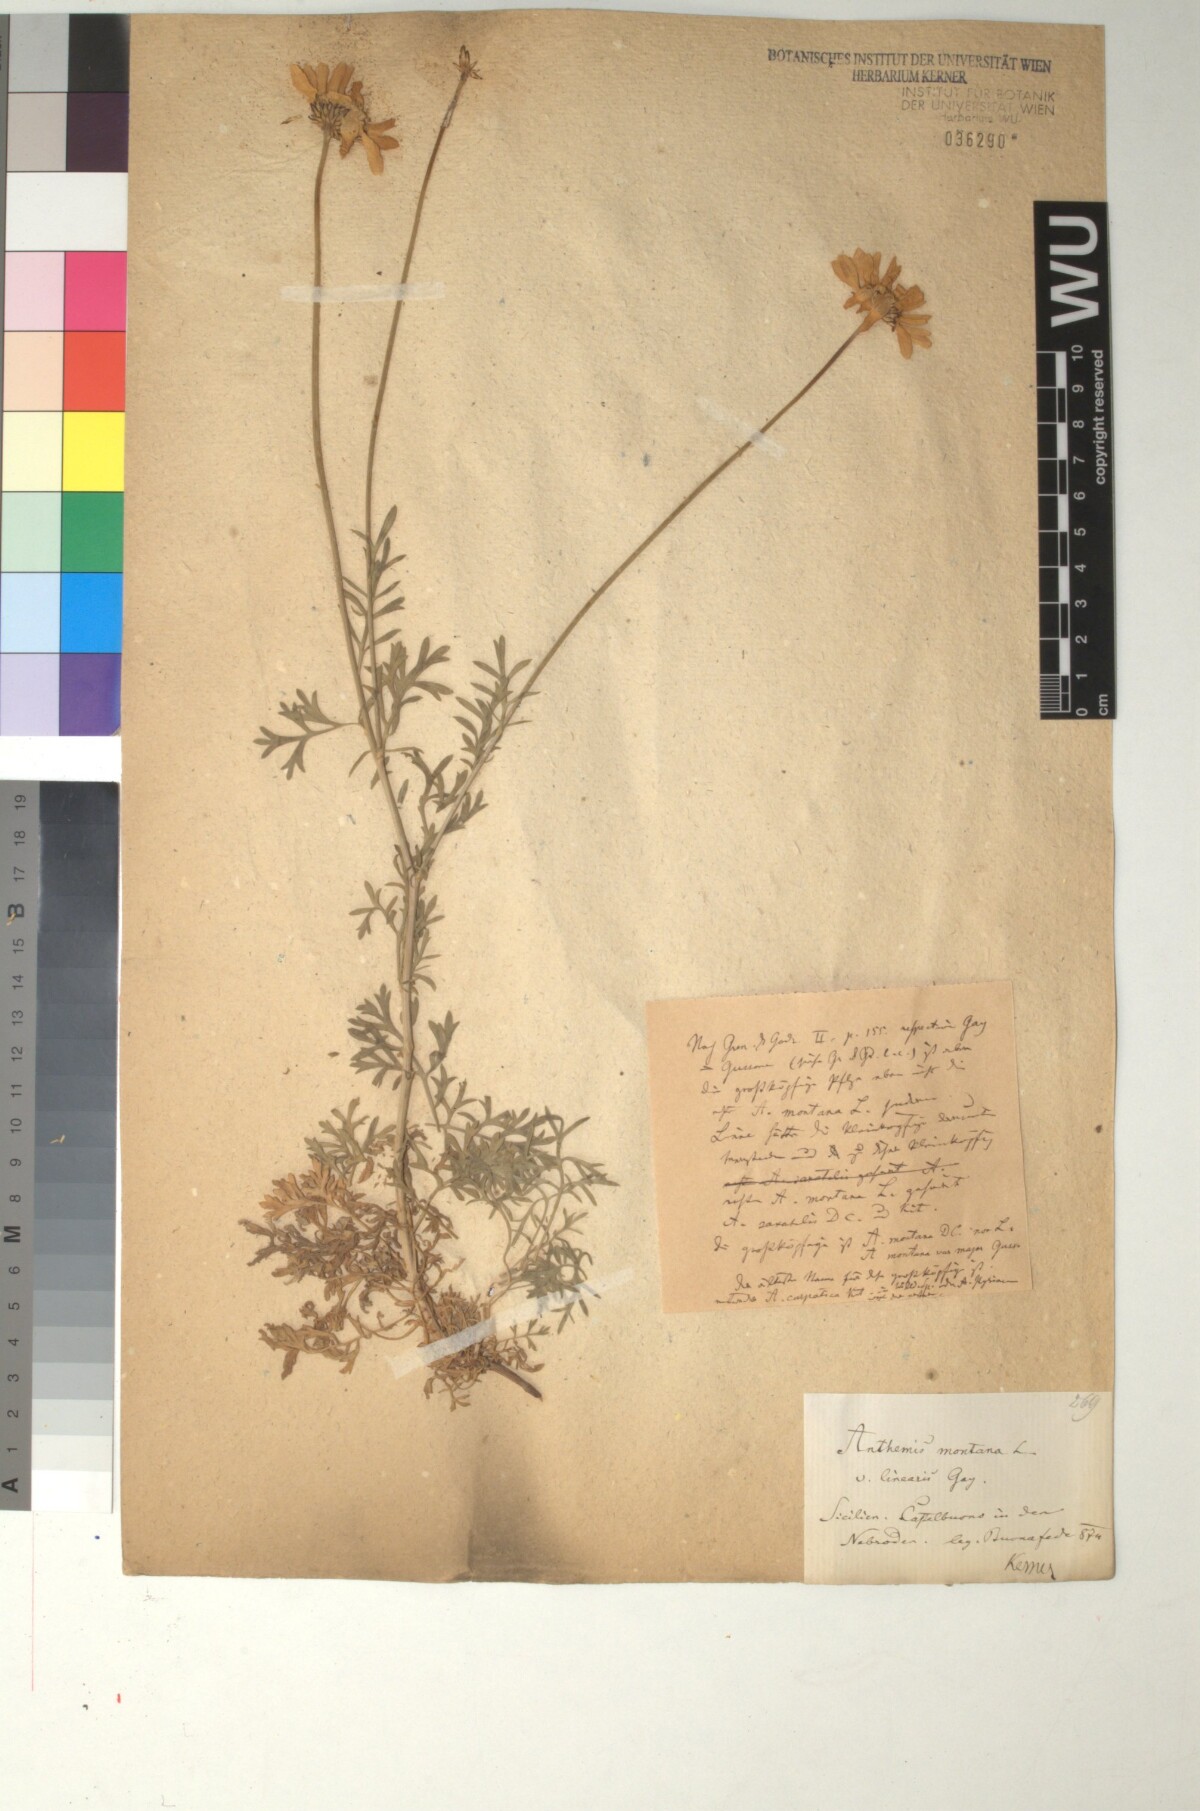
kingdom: Plantae
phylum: Tracheophyta
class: Magnoliopsida
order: Asterales
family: Asteraceae
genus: Anthemis
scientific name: Anthemis cretica
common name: Mountain dog-daisy
